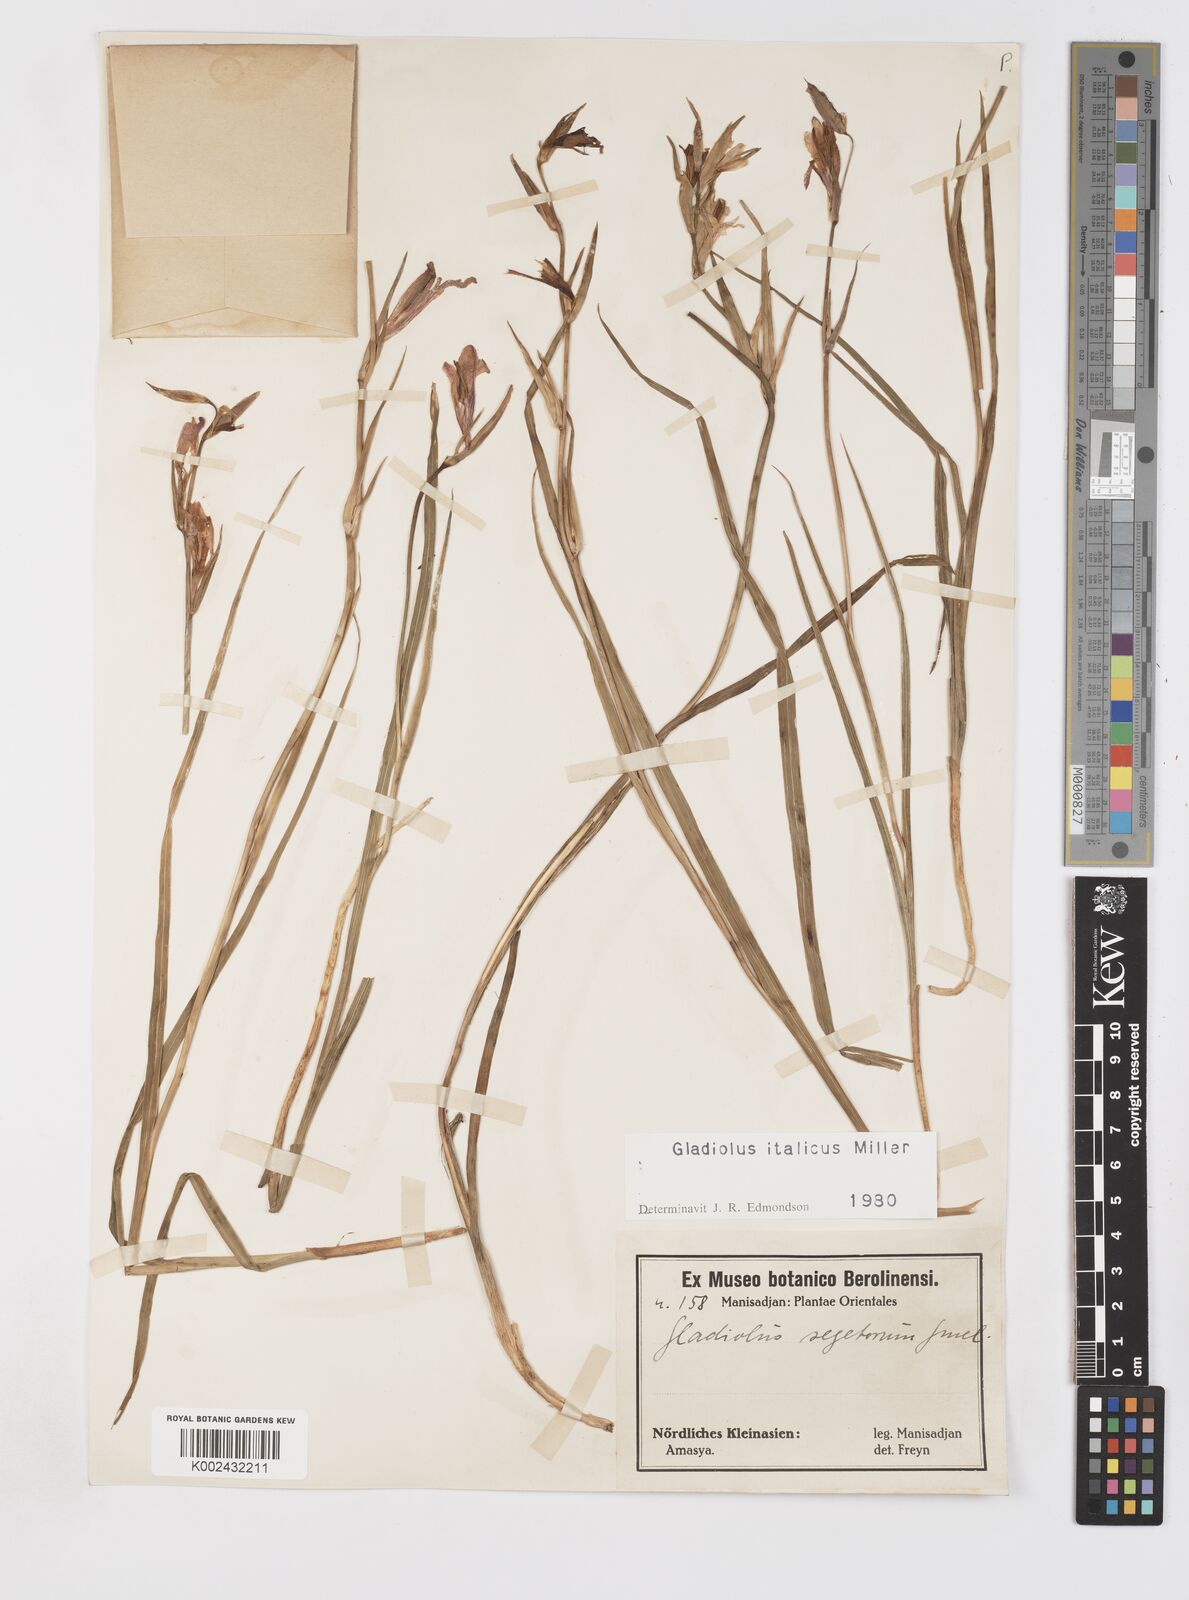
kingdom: Plantae
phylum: Tracheophyta
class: Liliopsida
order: Asparagales
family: Iridaceae
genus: Gladiolus
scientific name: Gladiolus italicus
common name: Field gladiolus
